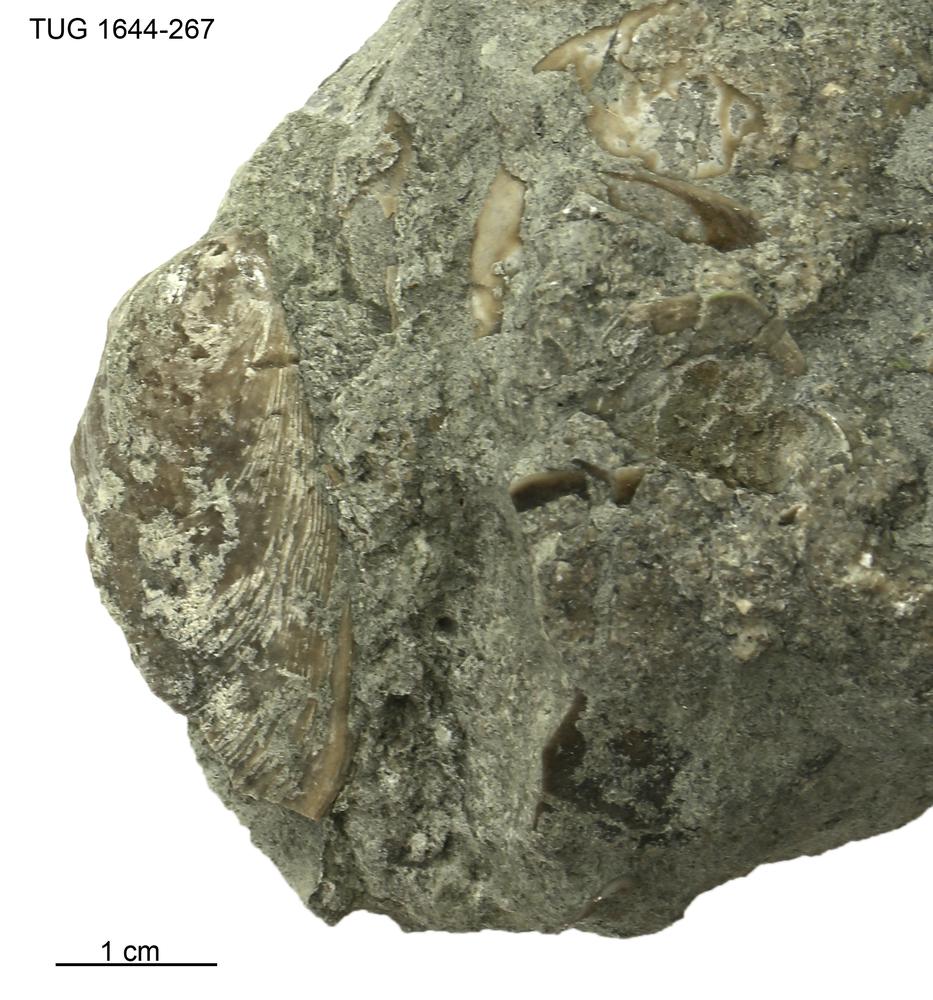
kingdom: Animalia
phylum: Mollusca
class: Monoplacophora
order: Tryblidiida
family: Tryblidiidae
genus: Pilina
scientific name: Pilina
